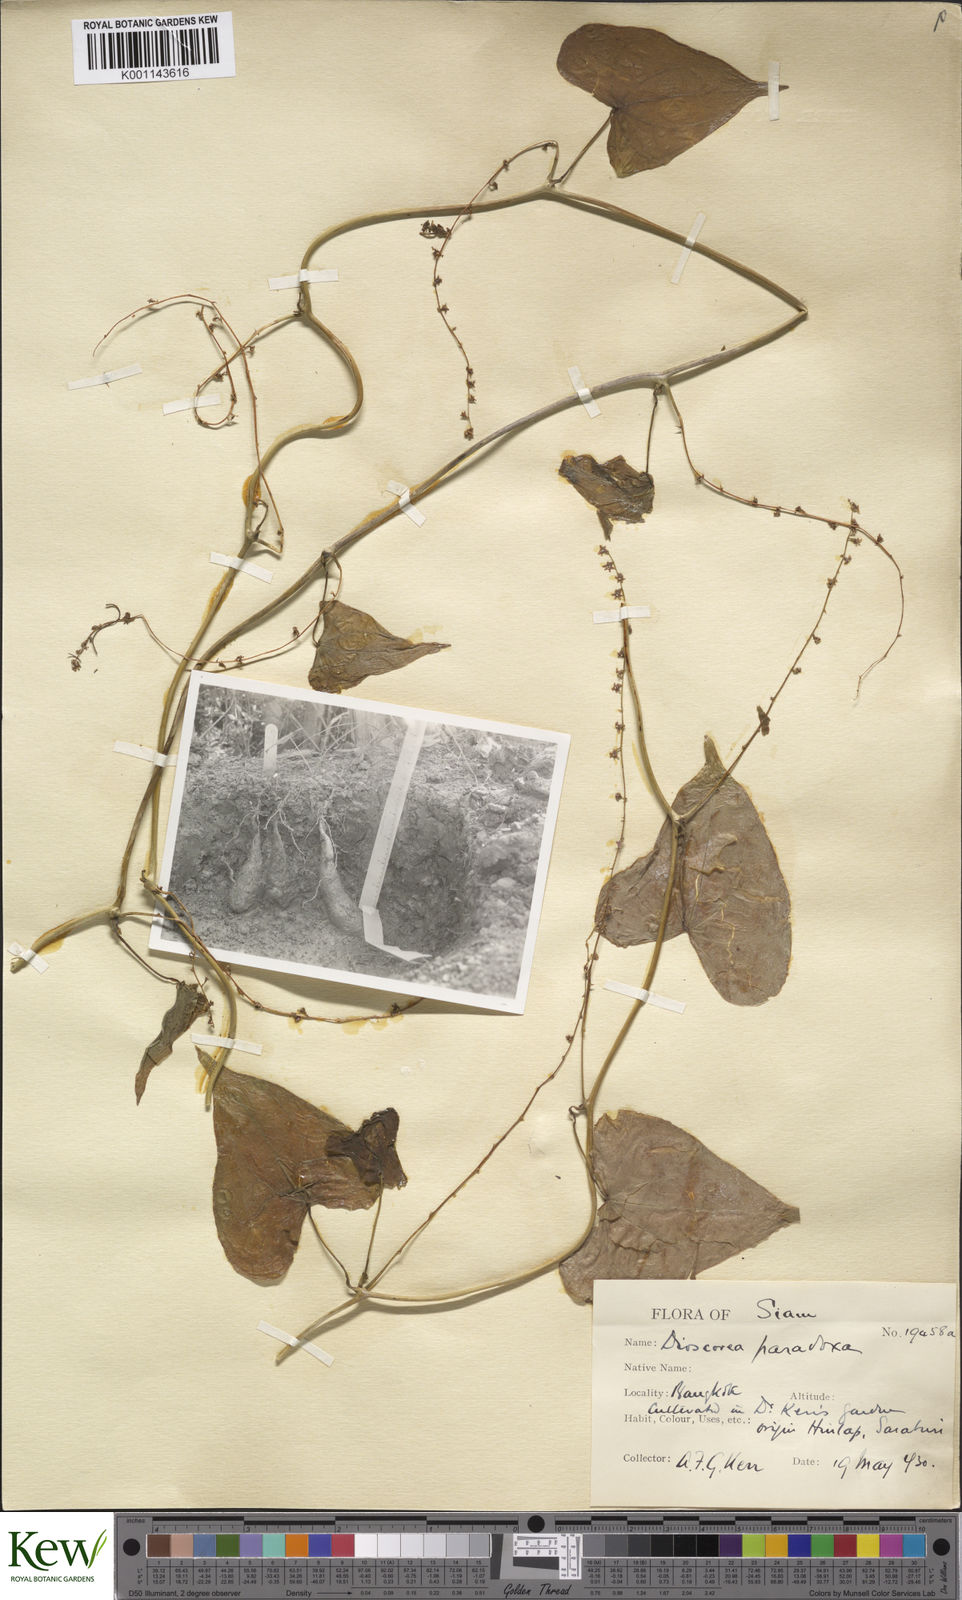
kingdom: Plantae
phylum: Tracheophyta
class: Liliopsida
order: Dioscoreales
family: Dioscoreaceae
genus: Dioscorea
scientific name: Dioscorea paradoxa
